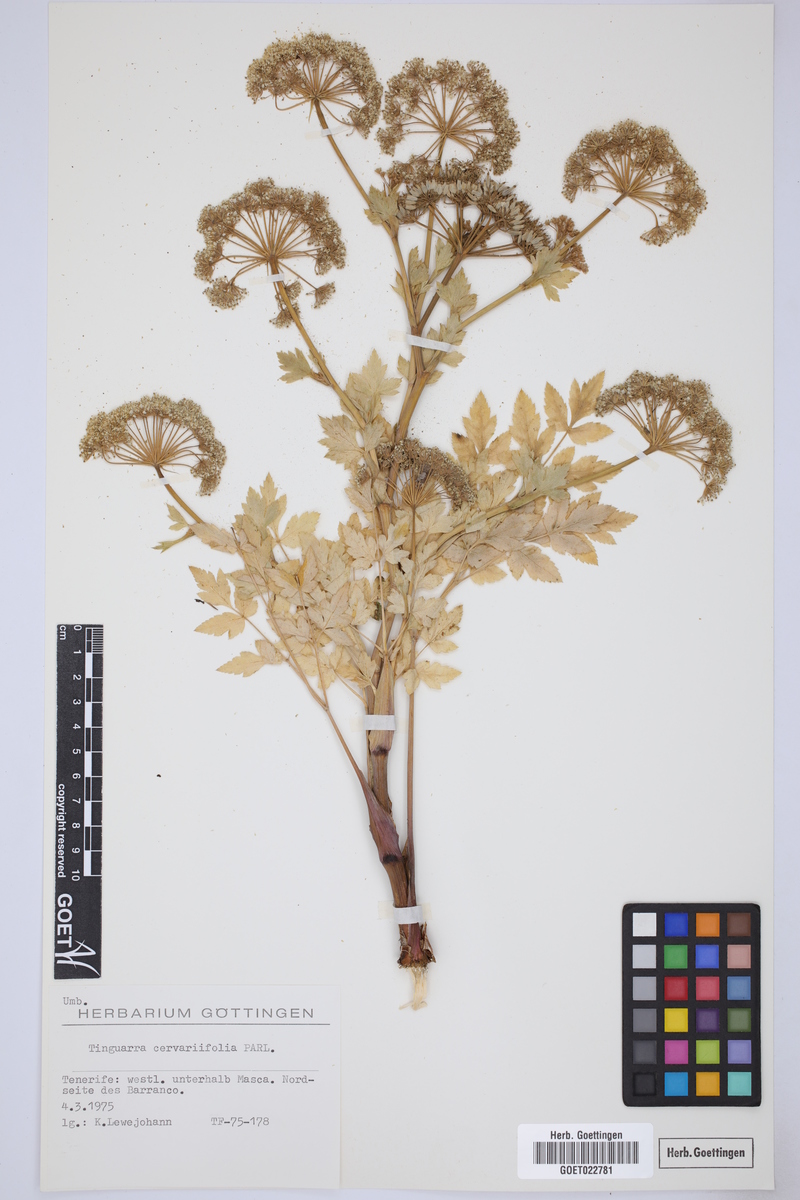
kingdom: Plantae
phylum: Tracheophyta
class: Magnoliopsida
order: Apiales
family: Apiaceae
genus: Athamanta
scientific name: Athamanta cervariifolia
